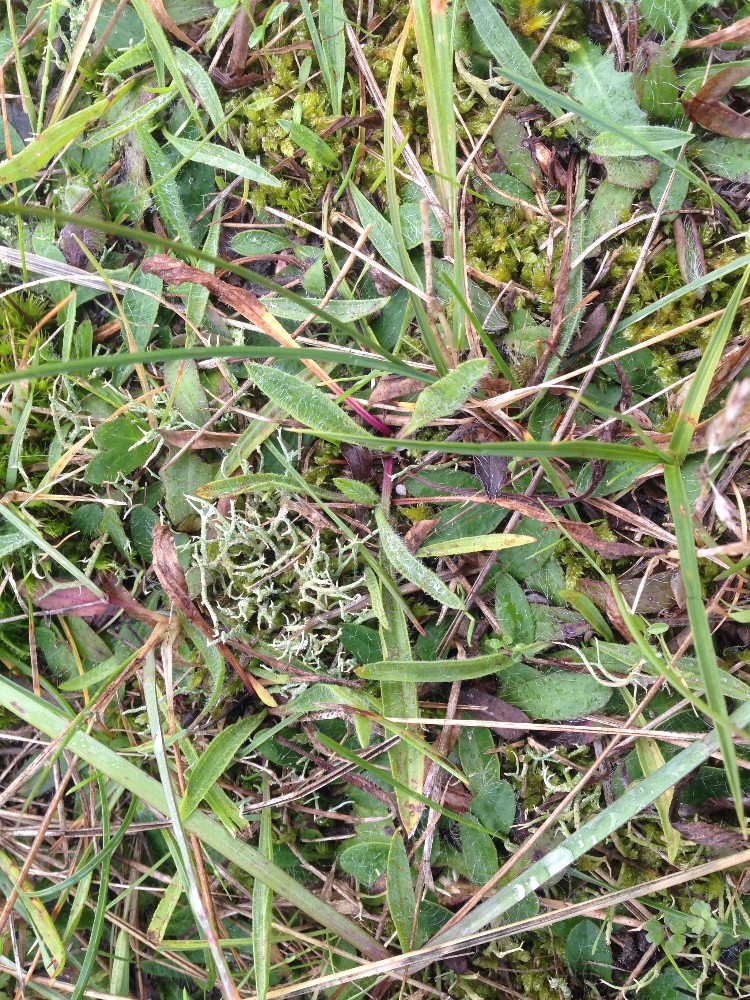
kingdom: Fungi
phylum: Ascomycota
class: Lecanoromycetes
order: Lecanorales
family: Cladoniaceae
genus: Cladonia
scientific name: Cladonia rangiformis
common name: spættet bægerlav
